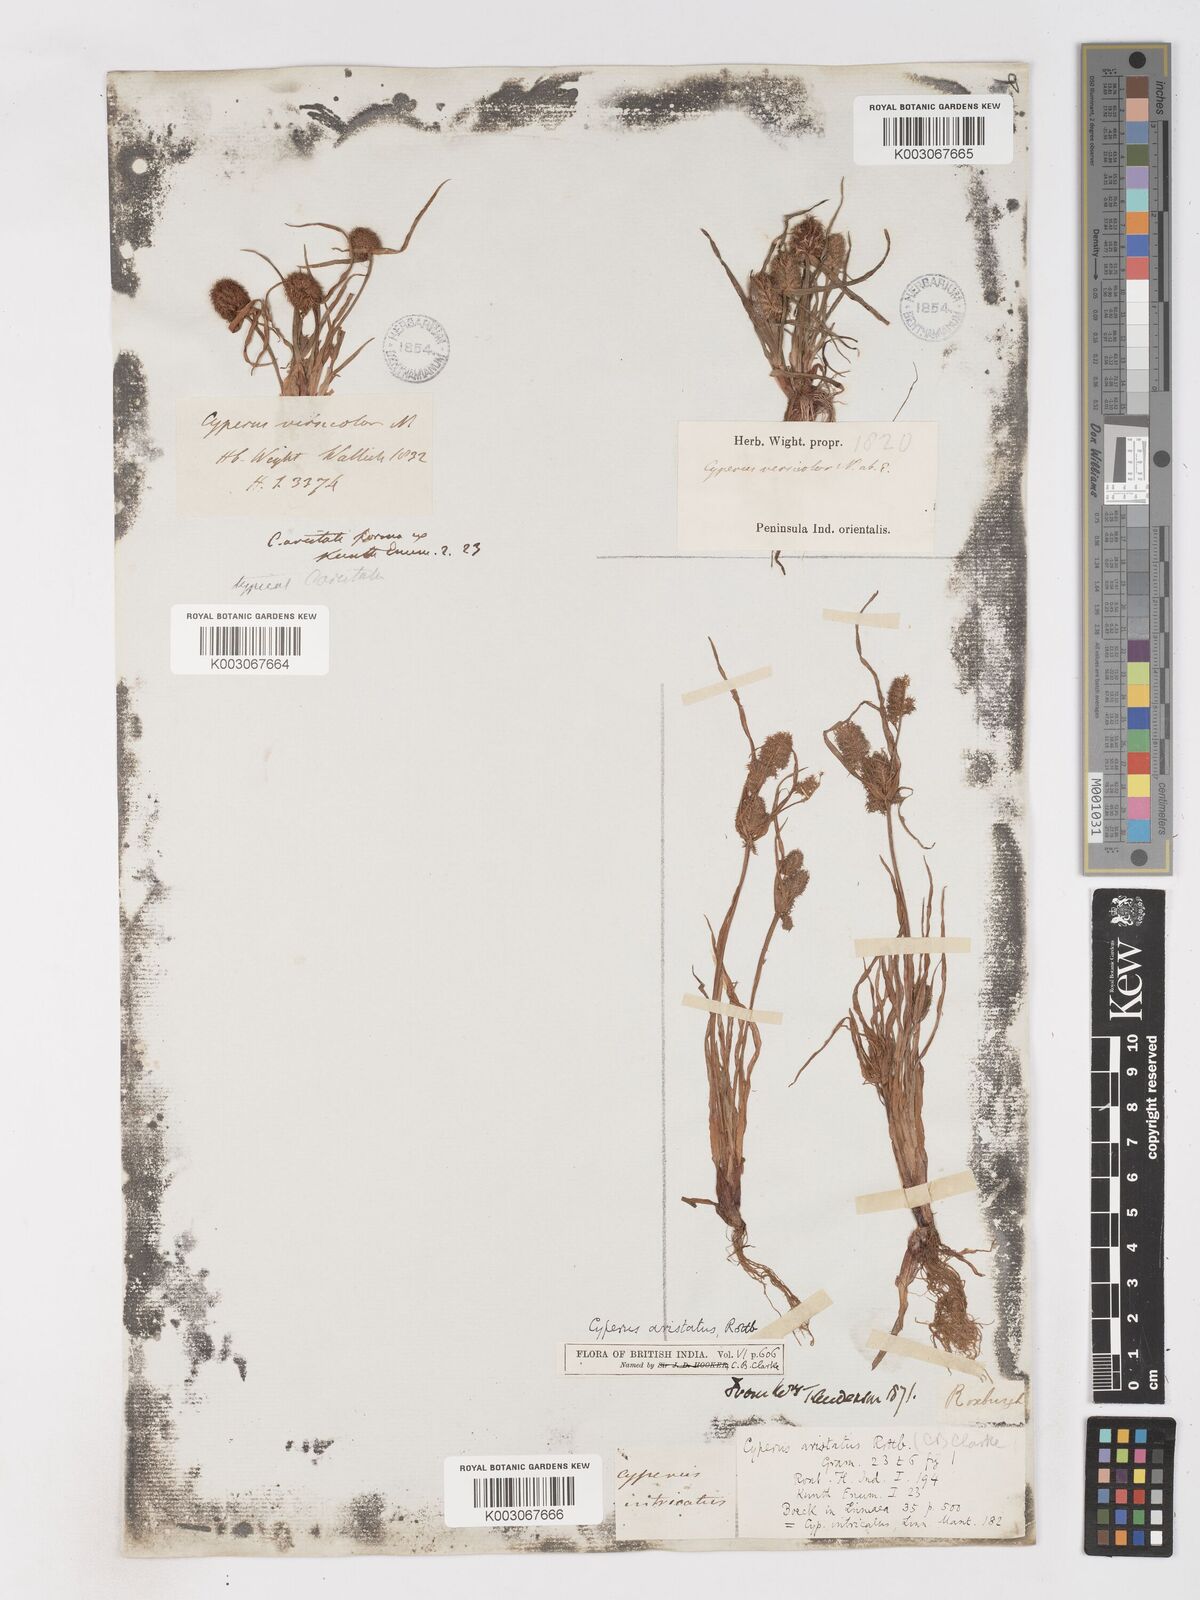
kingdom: Plantae
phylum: Tracheophyta
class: Liliopsida
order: Poales
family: Cyperaceae
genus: Cyperus
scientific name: Cyperus squarrosus
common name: Awned cyperus
